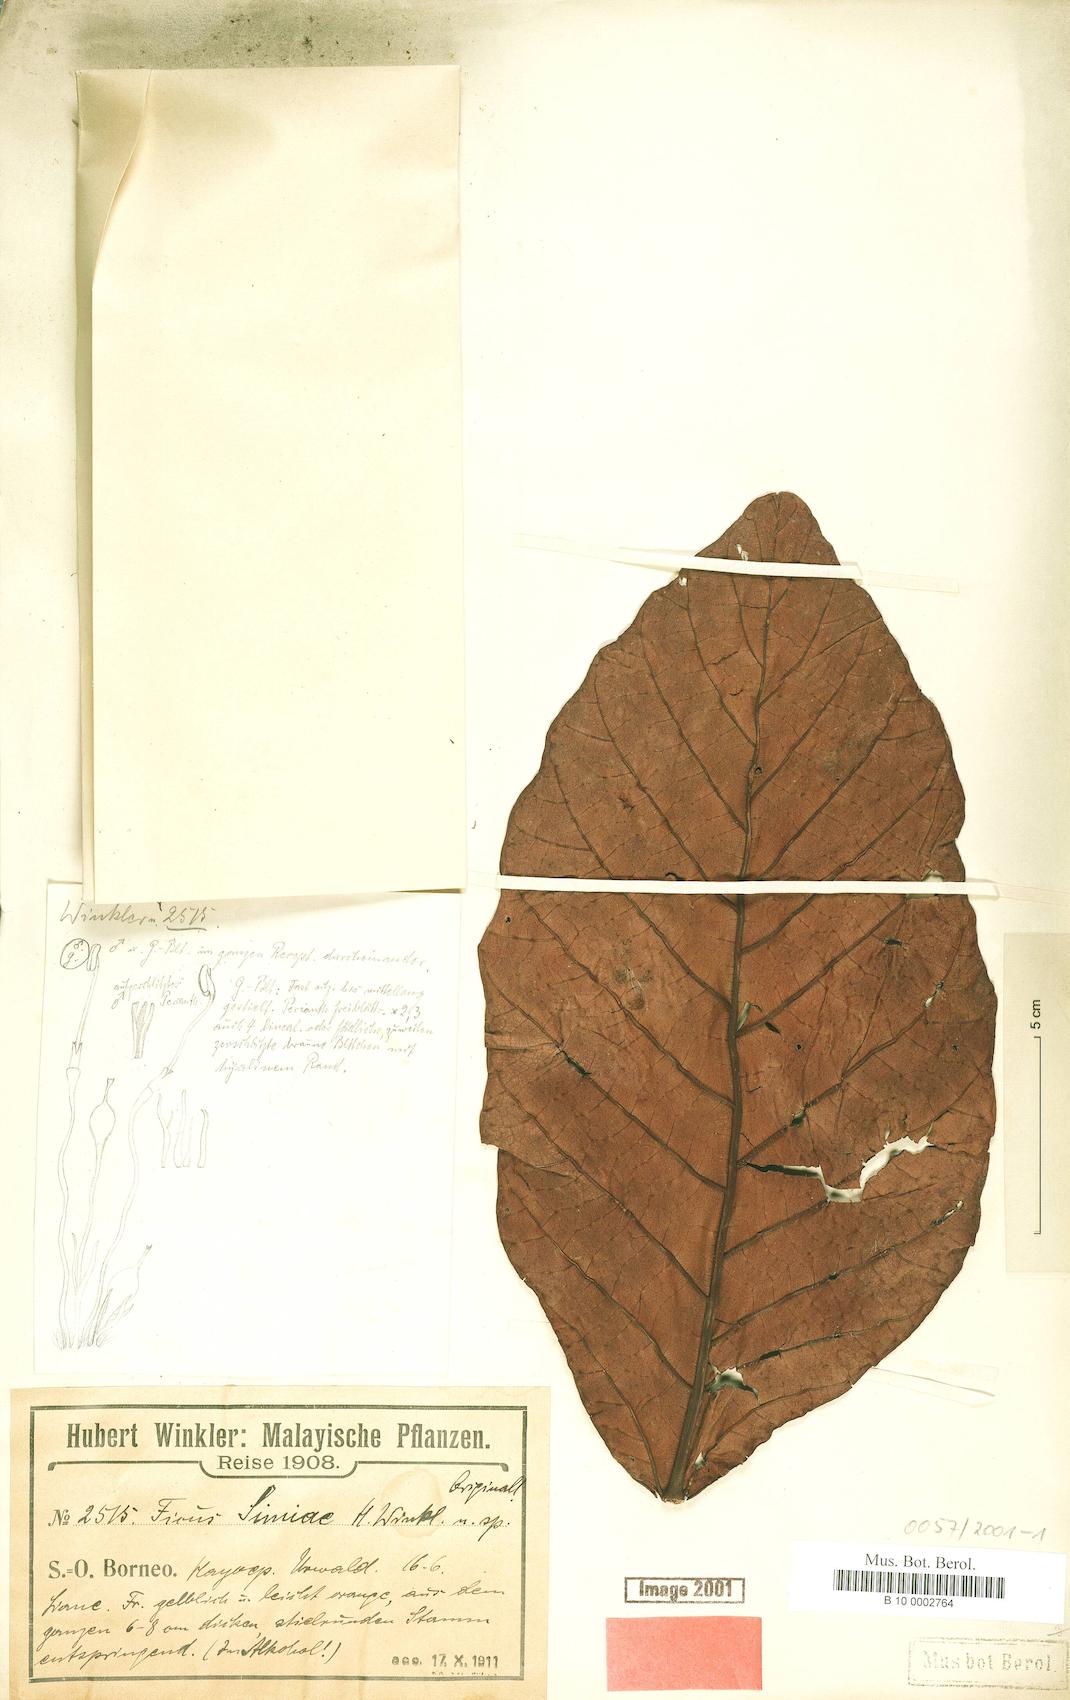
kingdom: Plantae
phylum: Tracheophyta
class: Magnoliopsida
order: Rosales
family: Moraceae
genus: Ficus
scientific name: Ficus punctata
